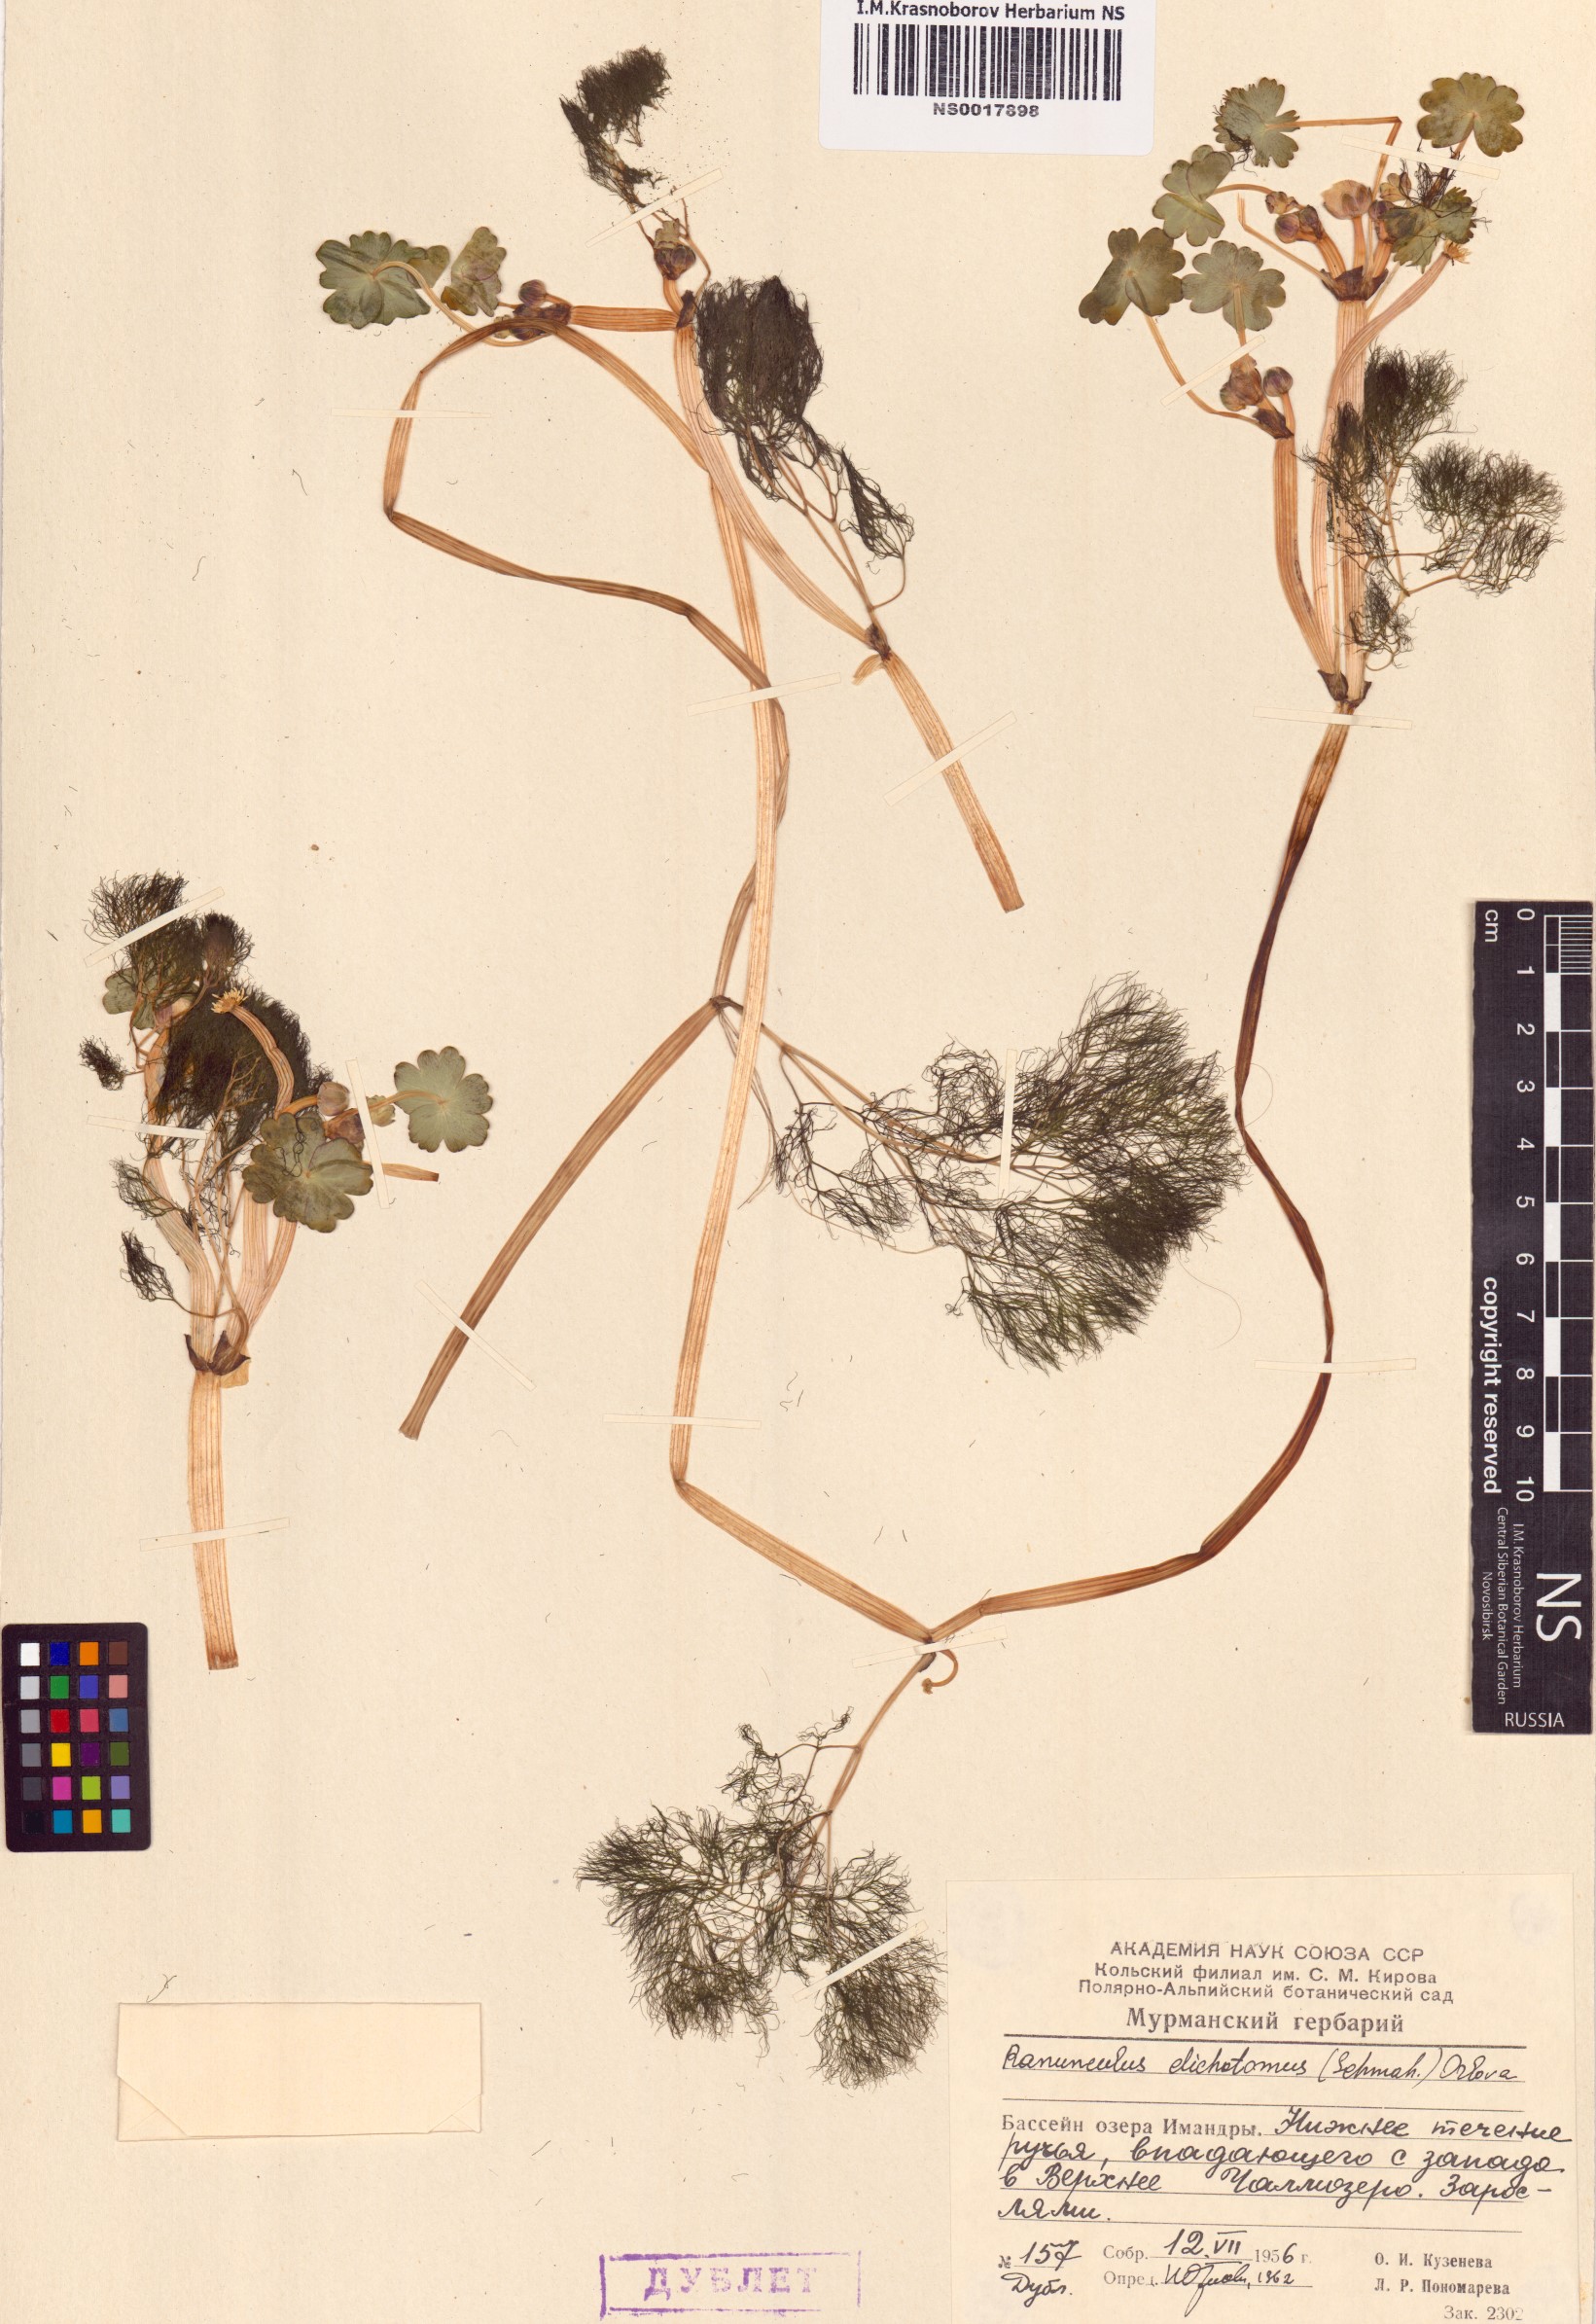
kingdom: Plantae
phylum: Tracheophyta
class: Magnoliopsida
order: Ranunculales
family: Ranunculaceae
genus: Ranunculus
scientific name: Ranunculus schmalhausenii
